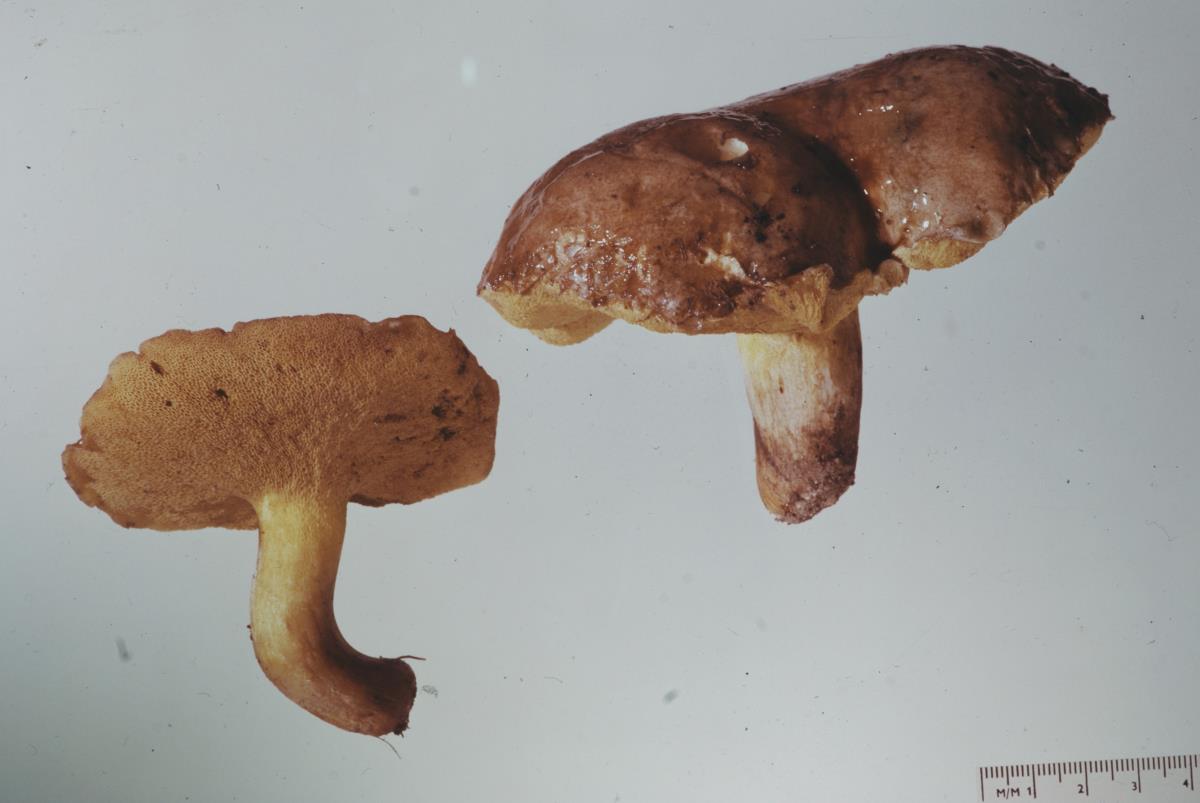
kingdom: Fungi
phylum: Basidiomycota
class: Agaricomycetes
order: Boletales
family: Suillaceae
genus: Suillus
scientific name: Suillus brevipes
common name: Short-stalked suillus
